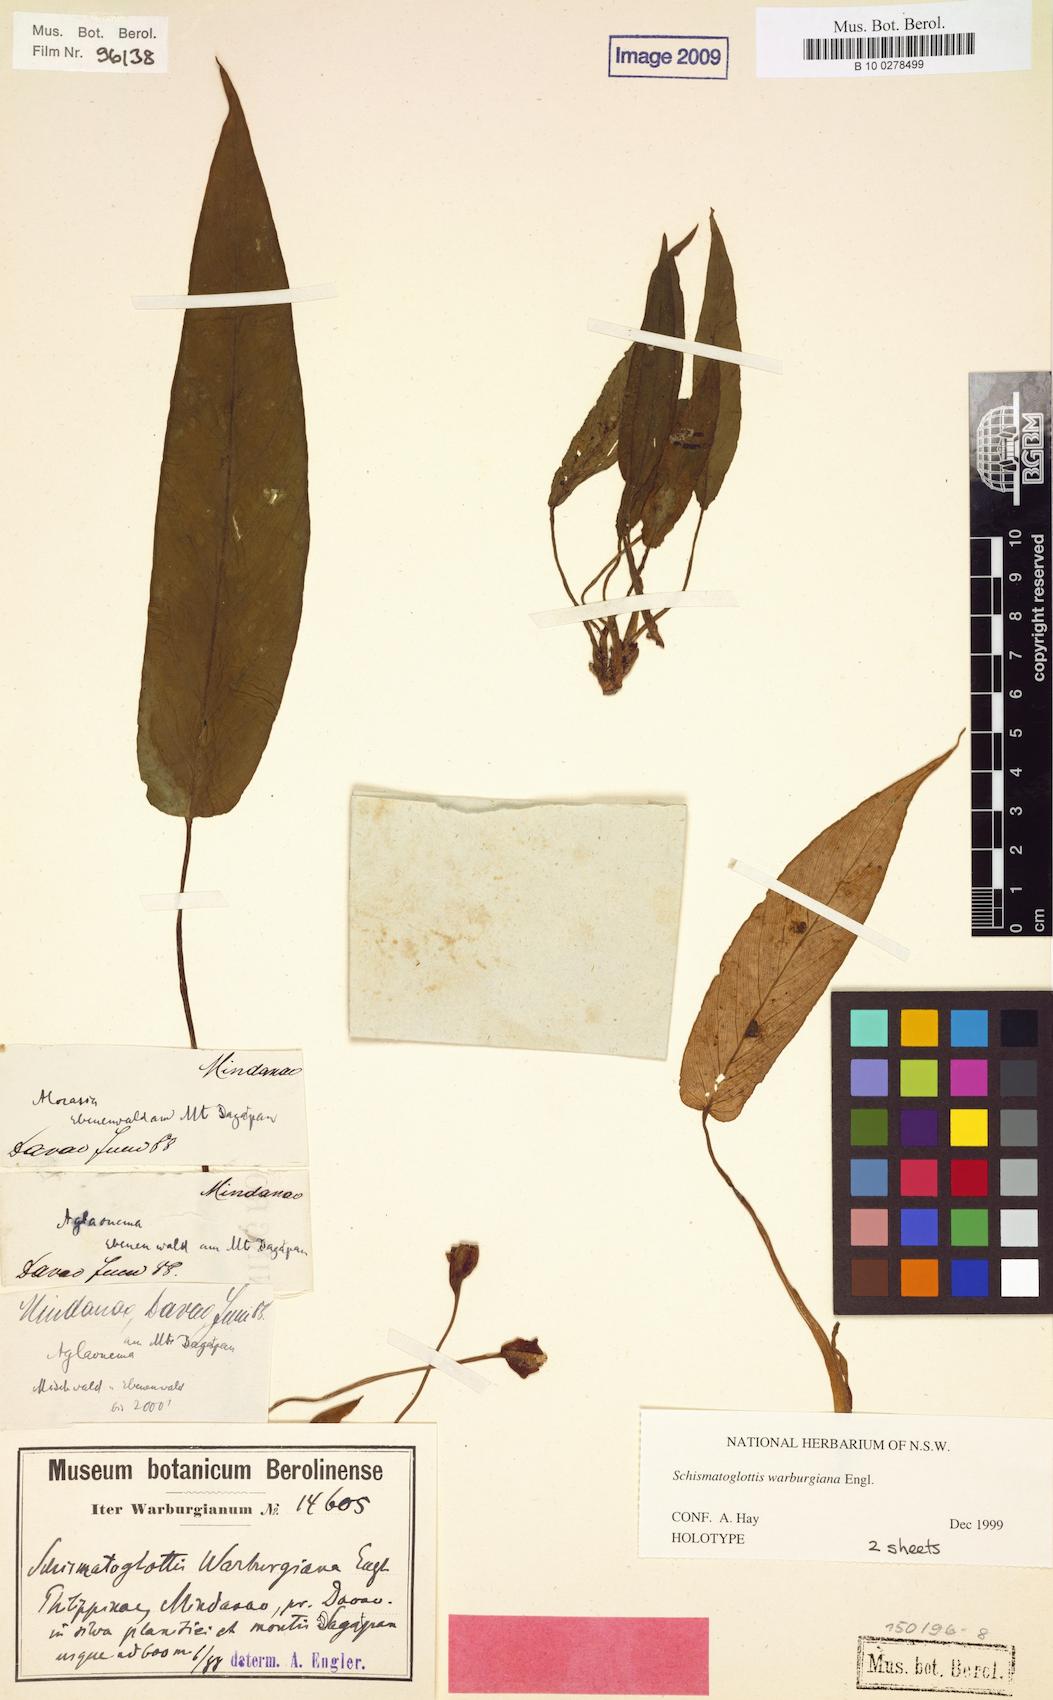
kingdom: Plantae
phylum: Tracheophyta
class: Liliopsida
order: Alismatales
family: Araceae
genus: Schismatoglottis
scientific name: Schismatoglottis warburgiana
